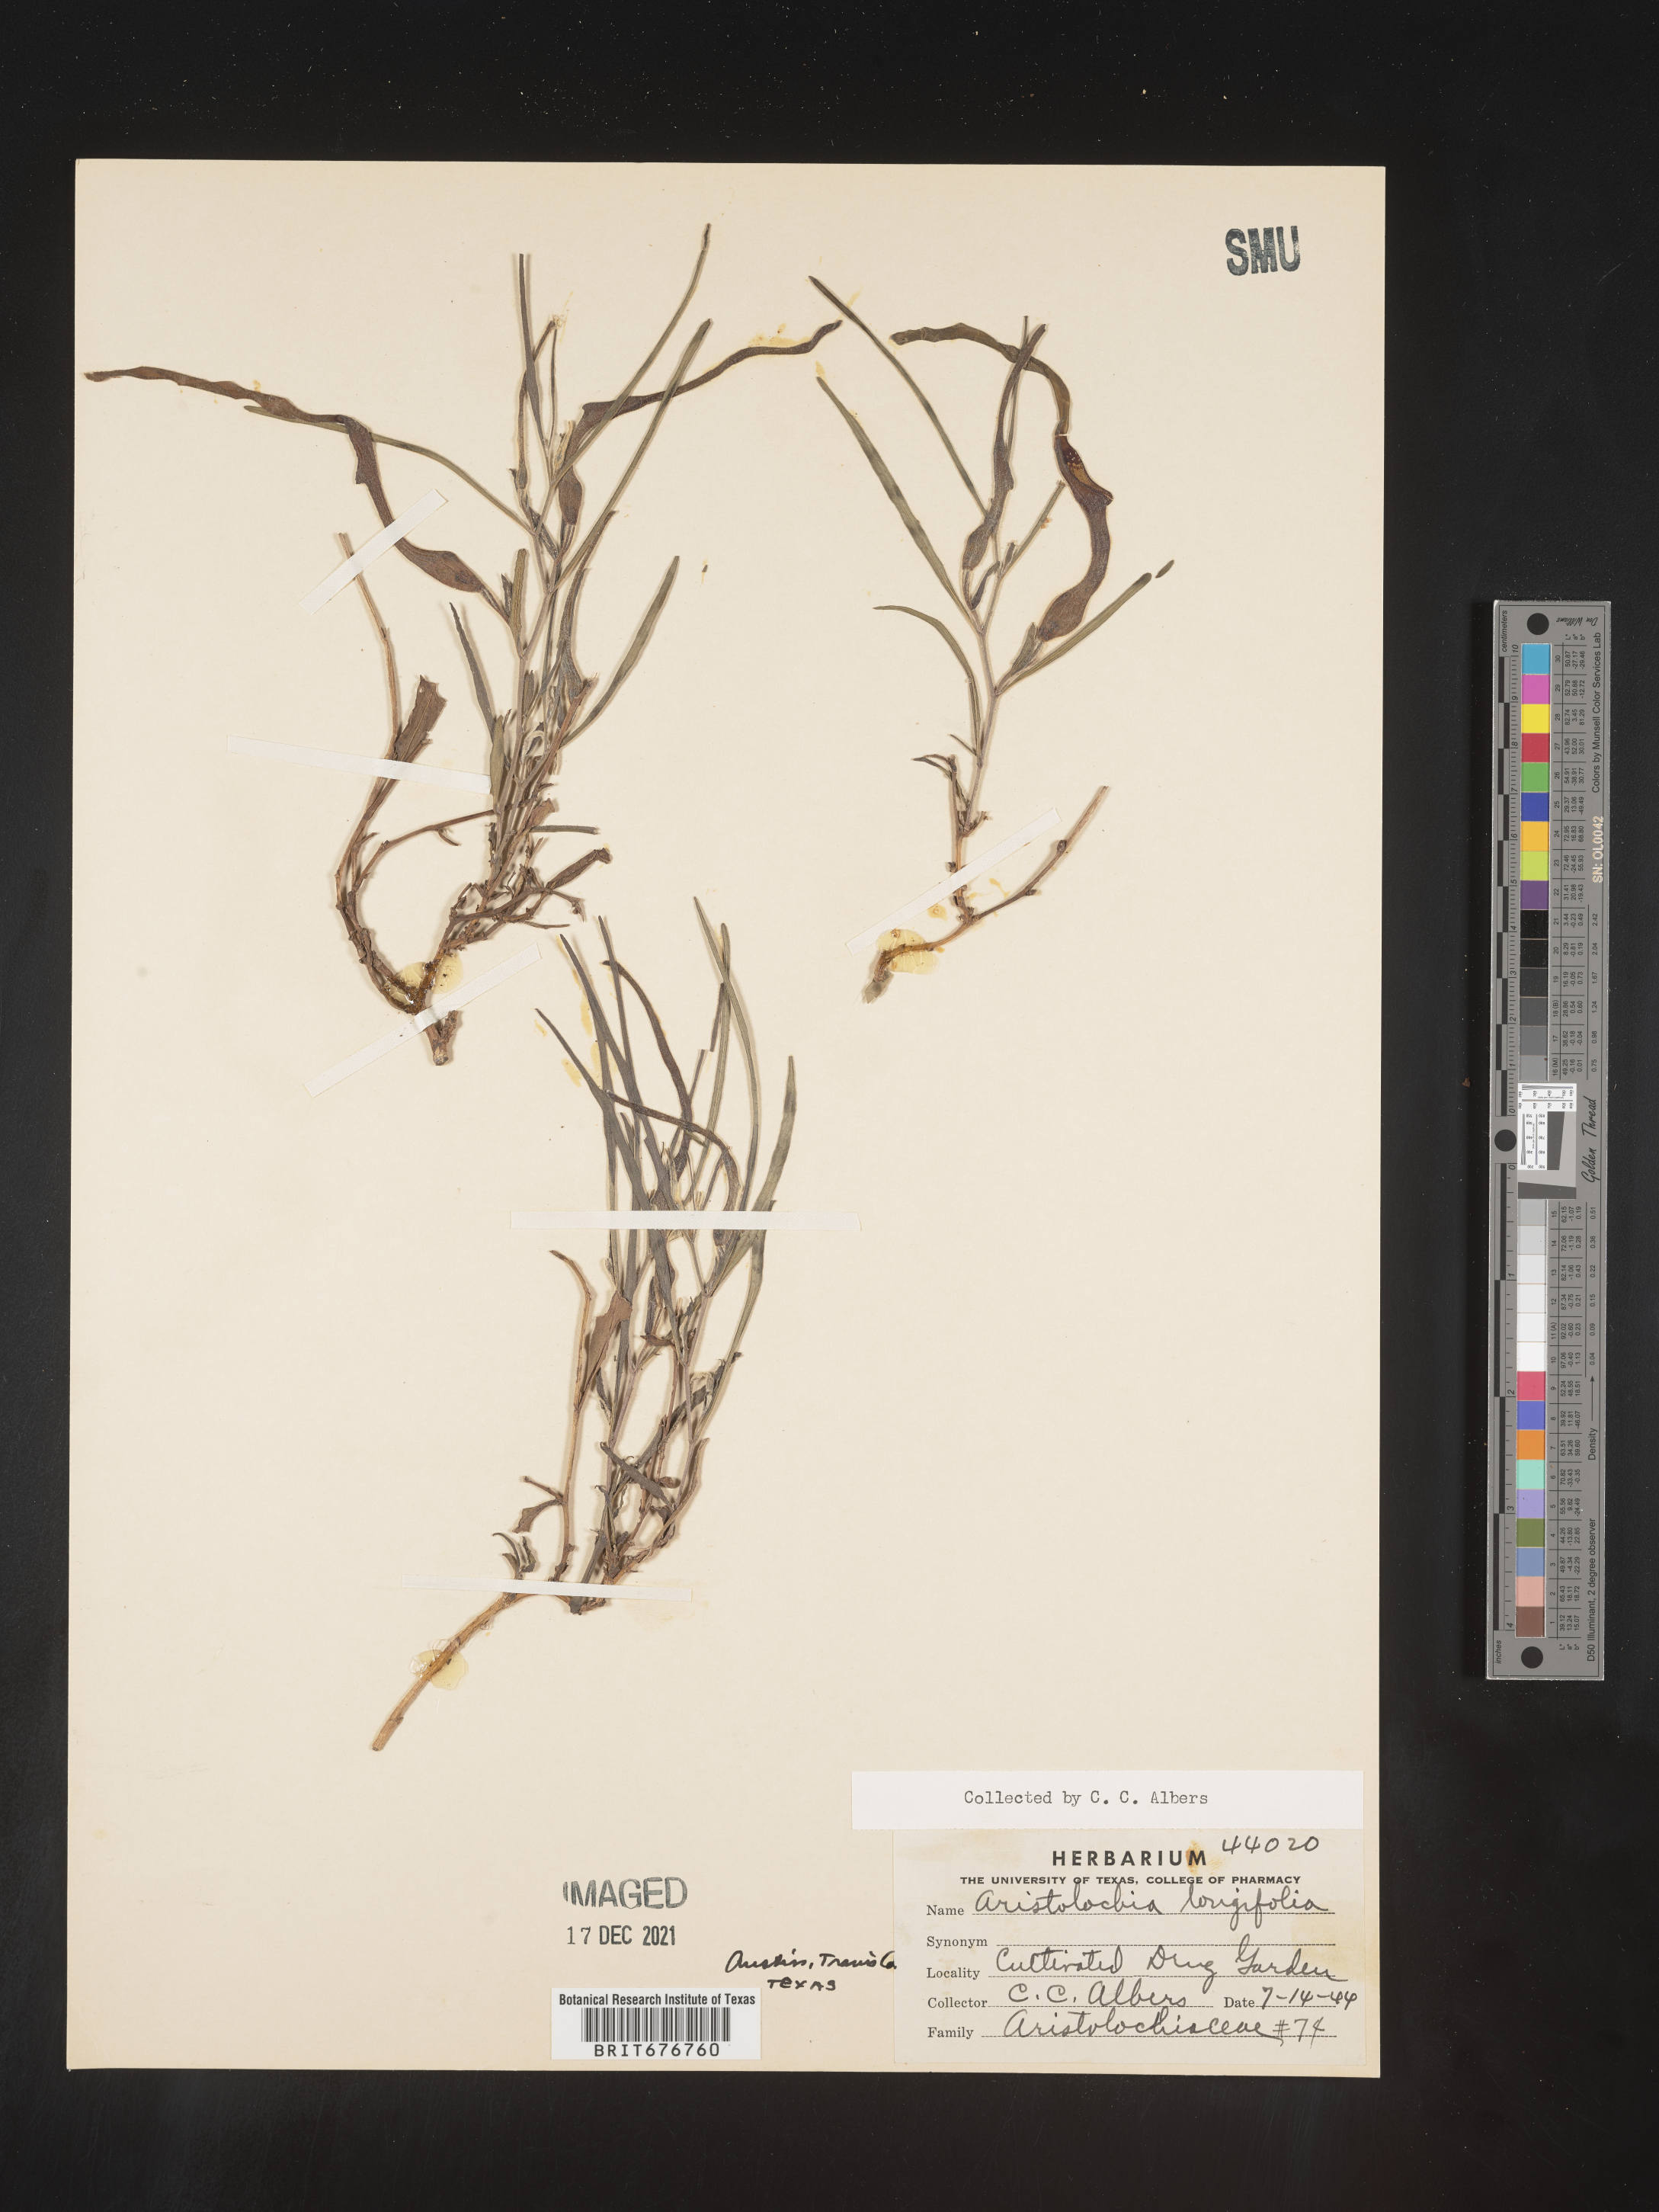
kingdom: Plantae
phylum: Tracheophyta
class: Magnoliopsida
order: Piperales
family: Aristolochiaceae
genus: Aristolochia
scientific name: Aristolochia
